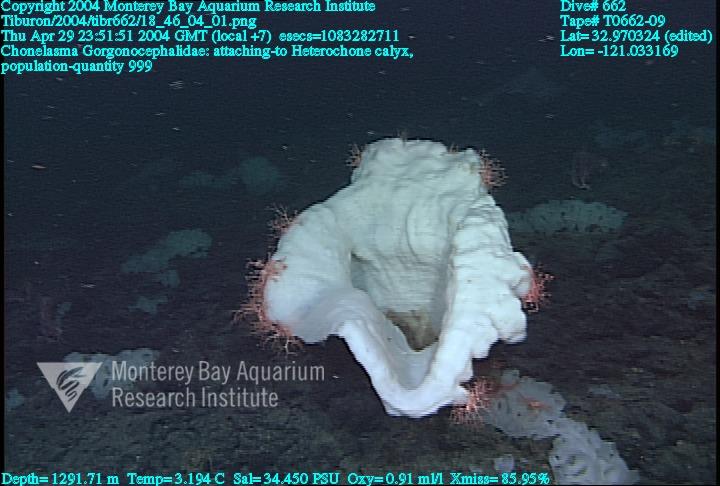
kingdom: Animalia
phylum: Porifera
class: Hexactinellida
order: Sceptrulophora
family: Euretidae
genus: Chonelasma
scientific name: Chonelasma
